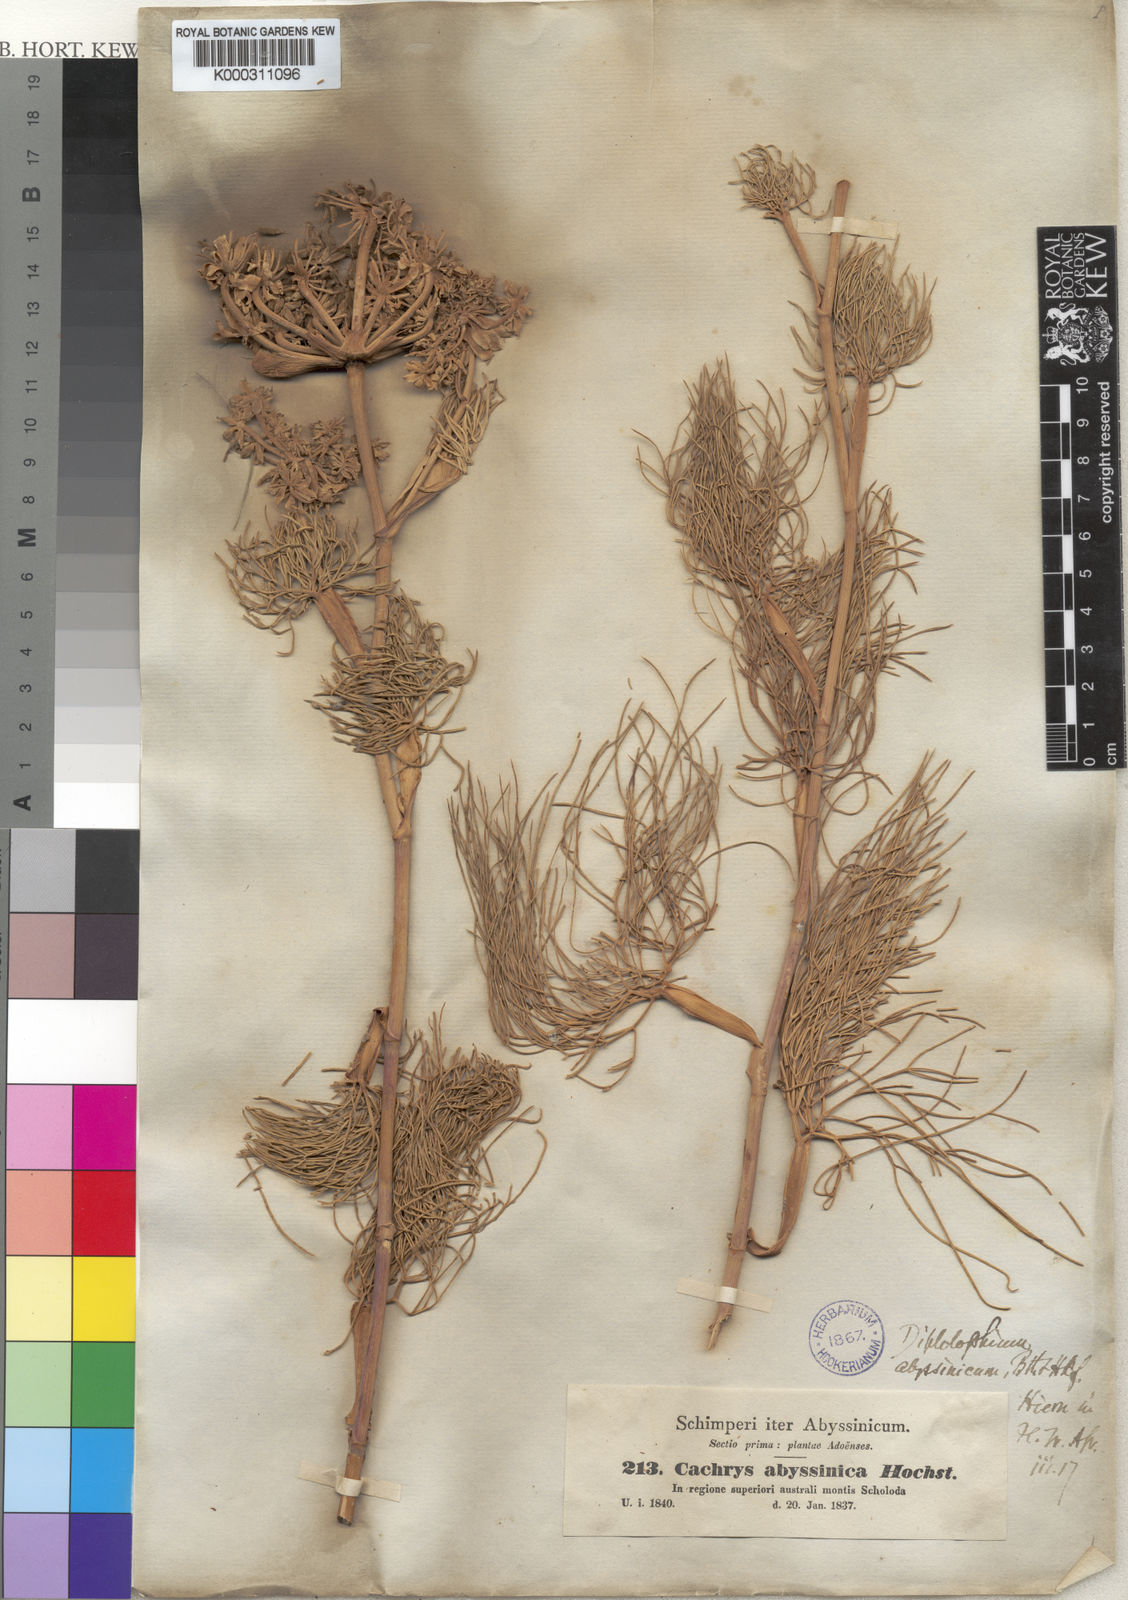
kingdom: Plantae
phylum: Tracheophyta
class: Magnoliopsida
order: Apiales
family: Apiaceae
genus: Diplolophium
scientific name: Diplolophium africanum
